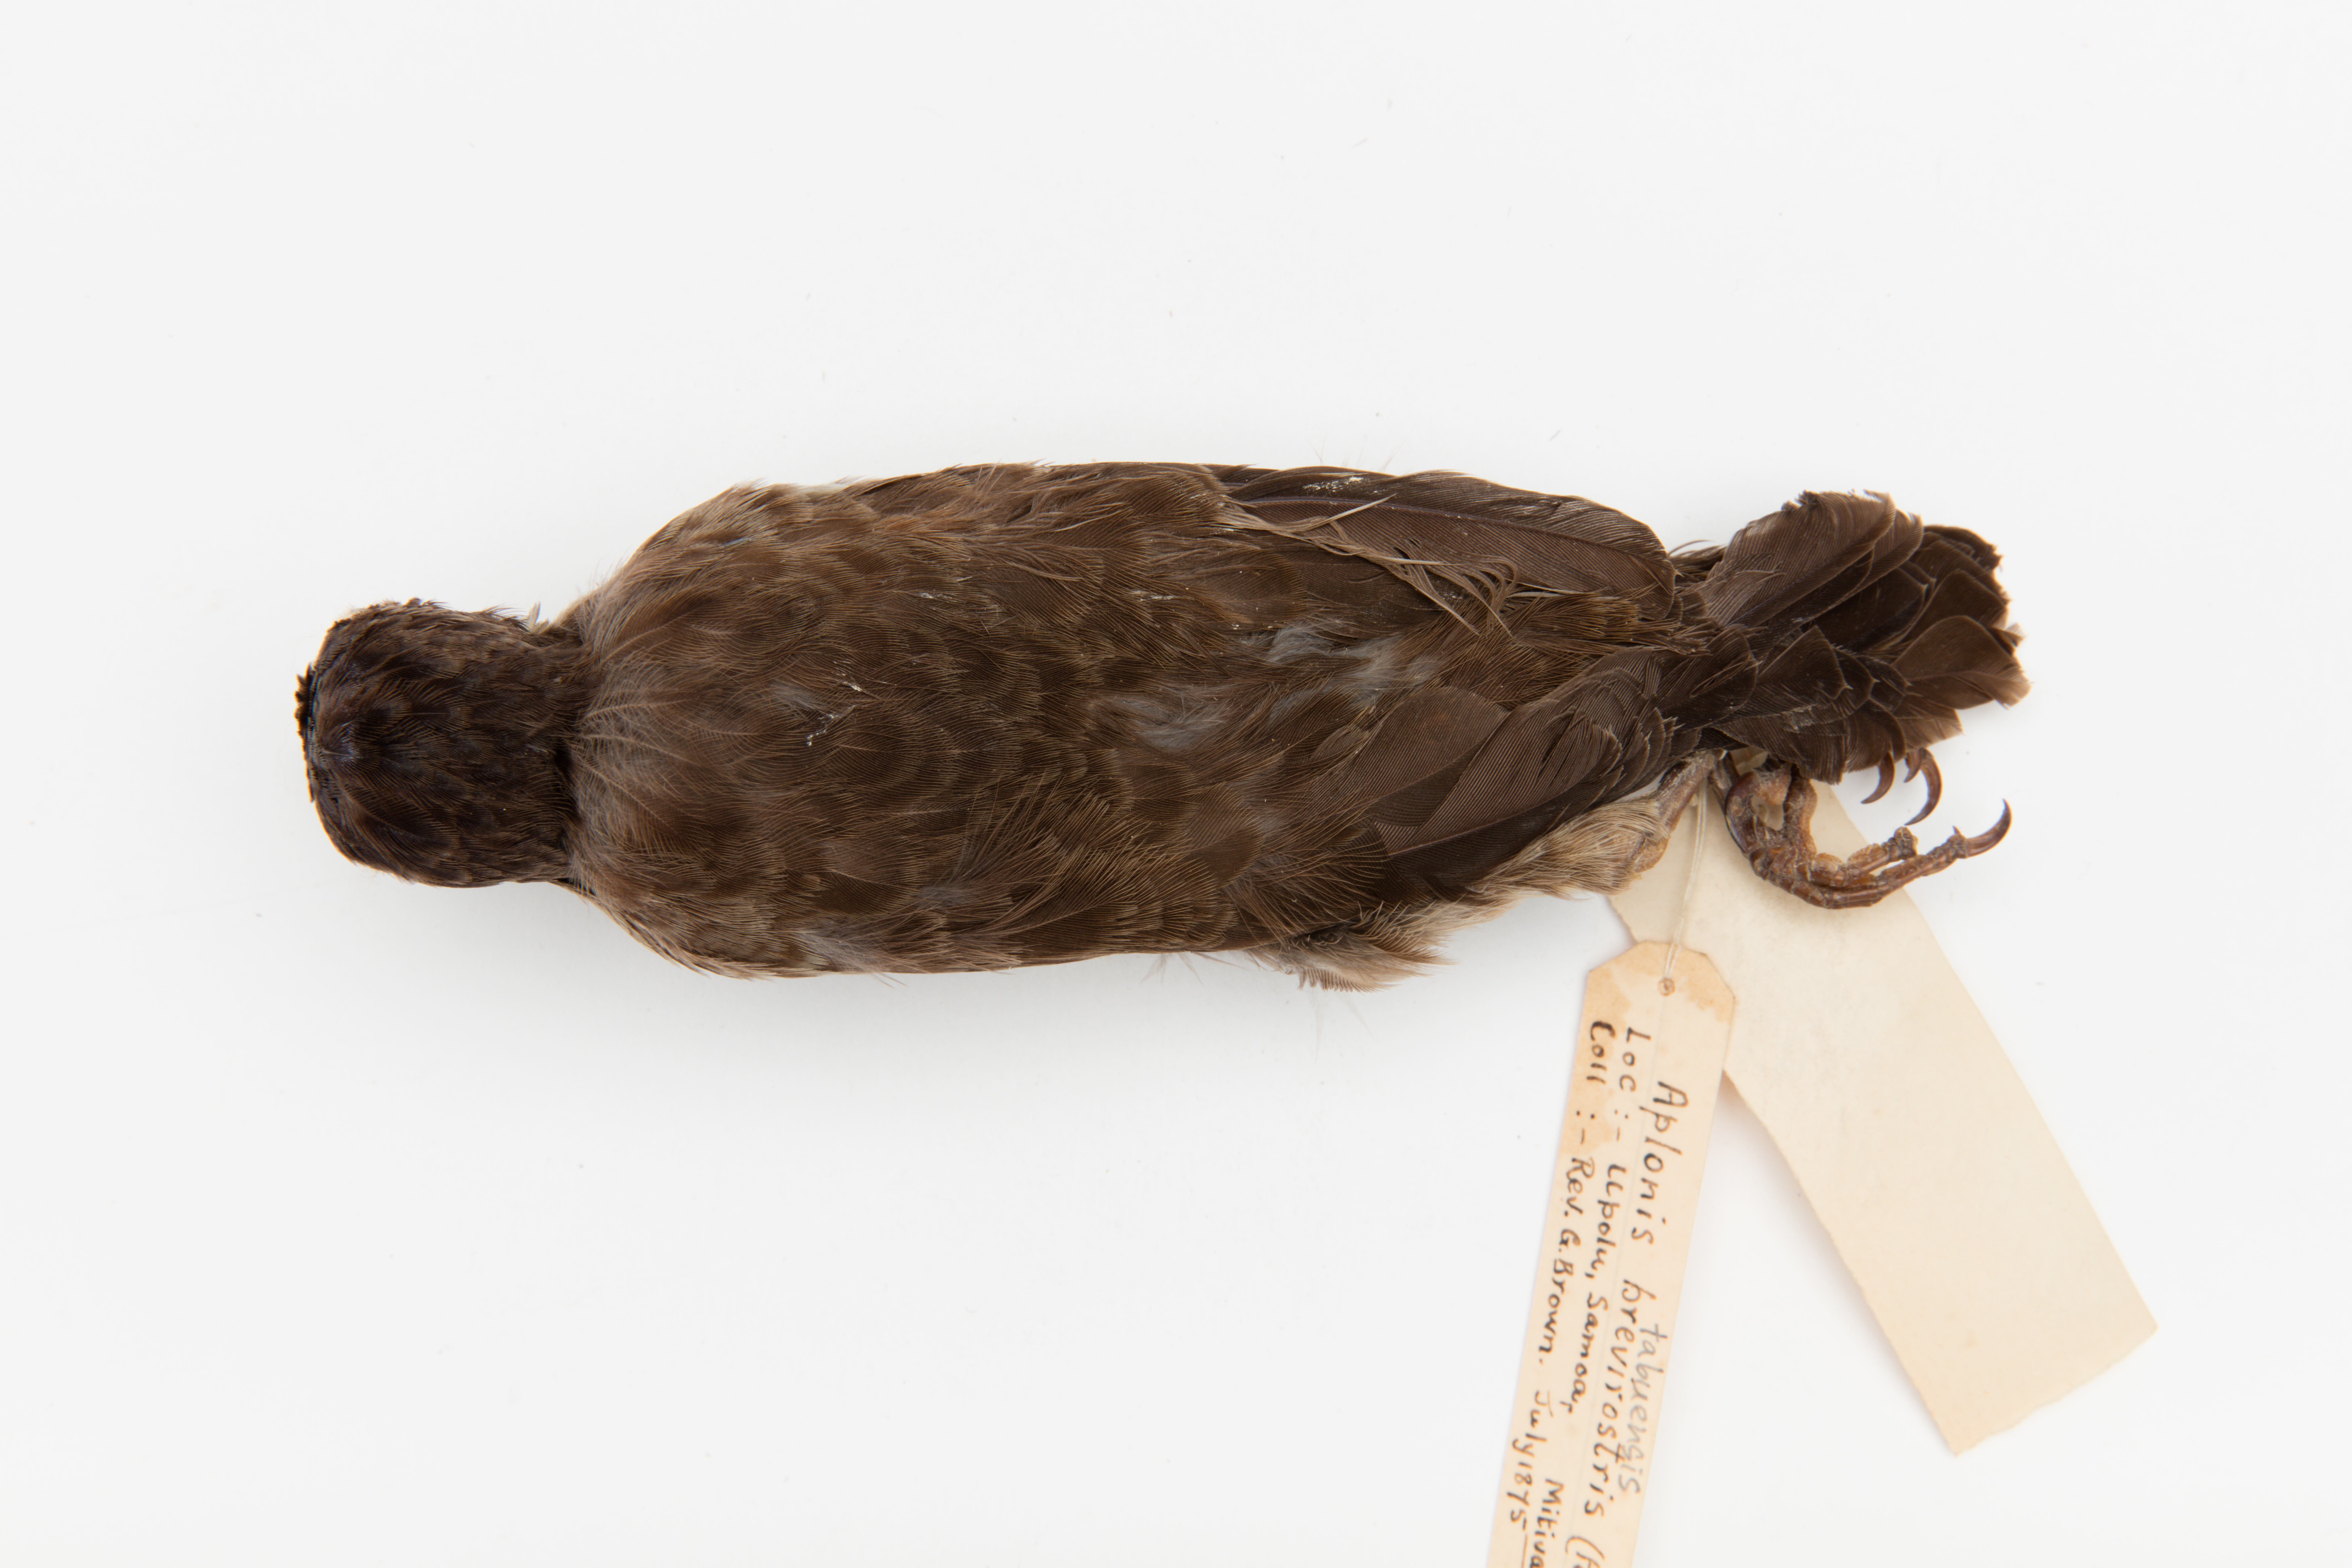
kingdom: Animalia
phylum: Chordata
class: Aves
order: Passeriformes
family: Sturnidae
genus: Aplonis
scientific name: Aplonis tabuensis
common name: Polynesian starling
